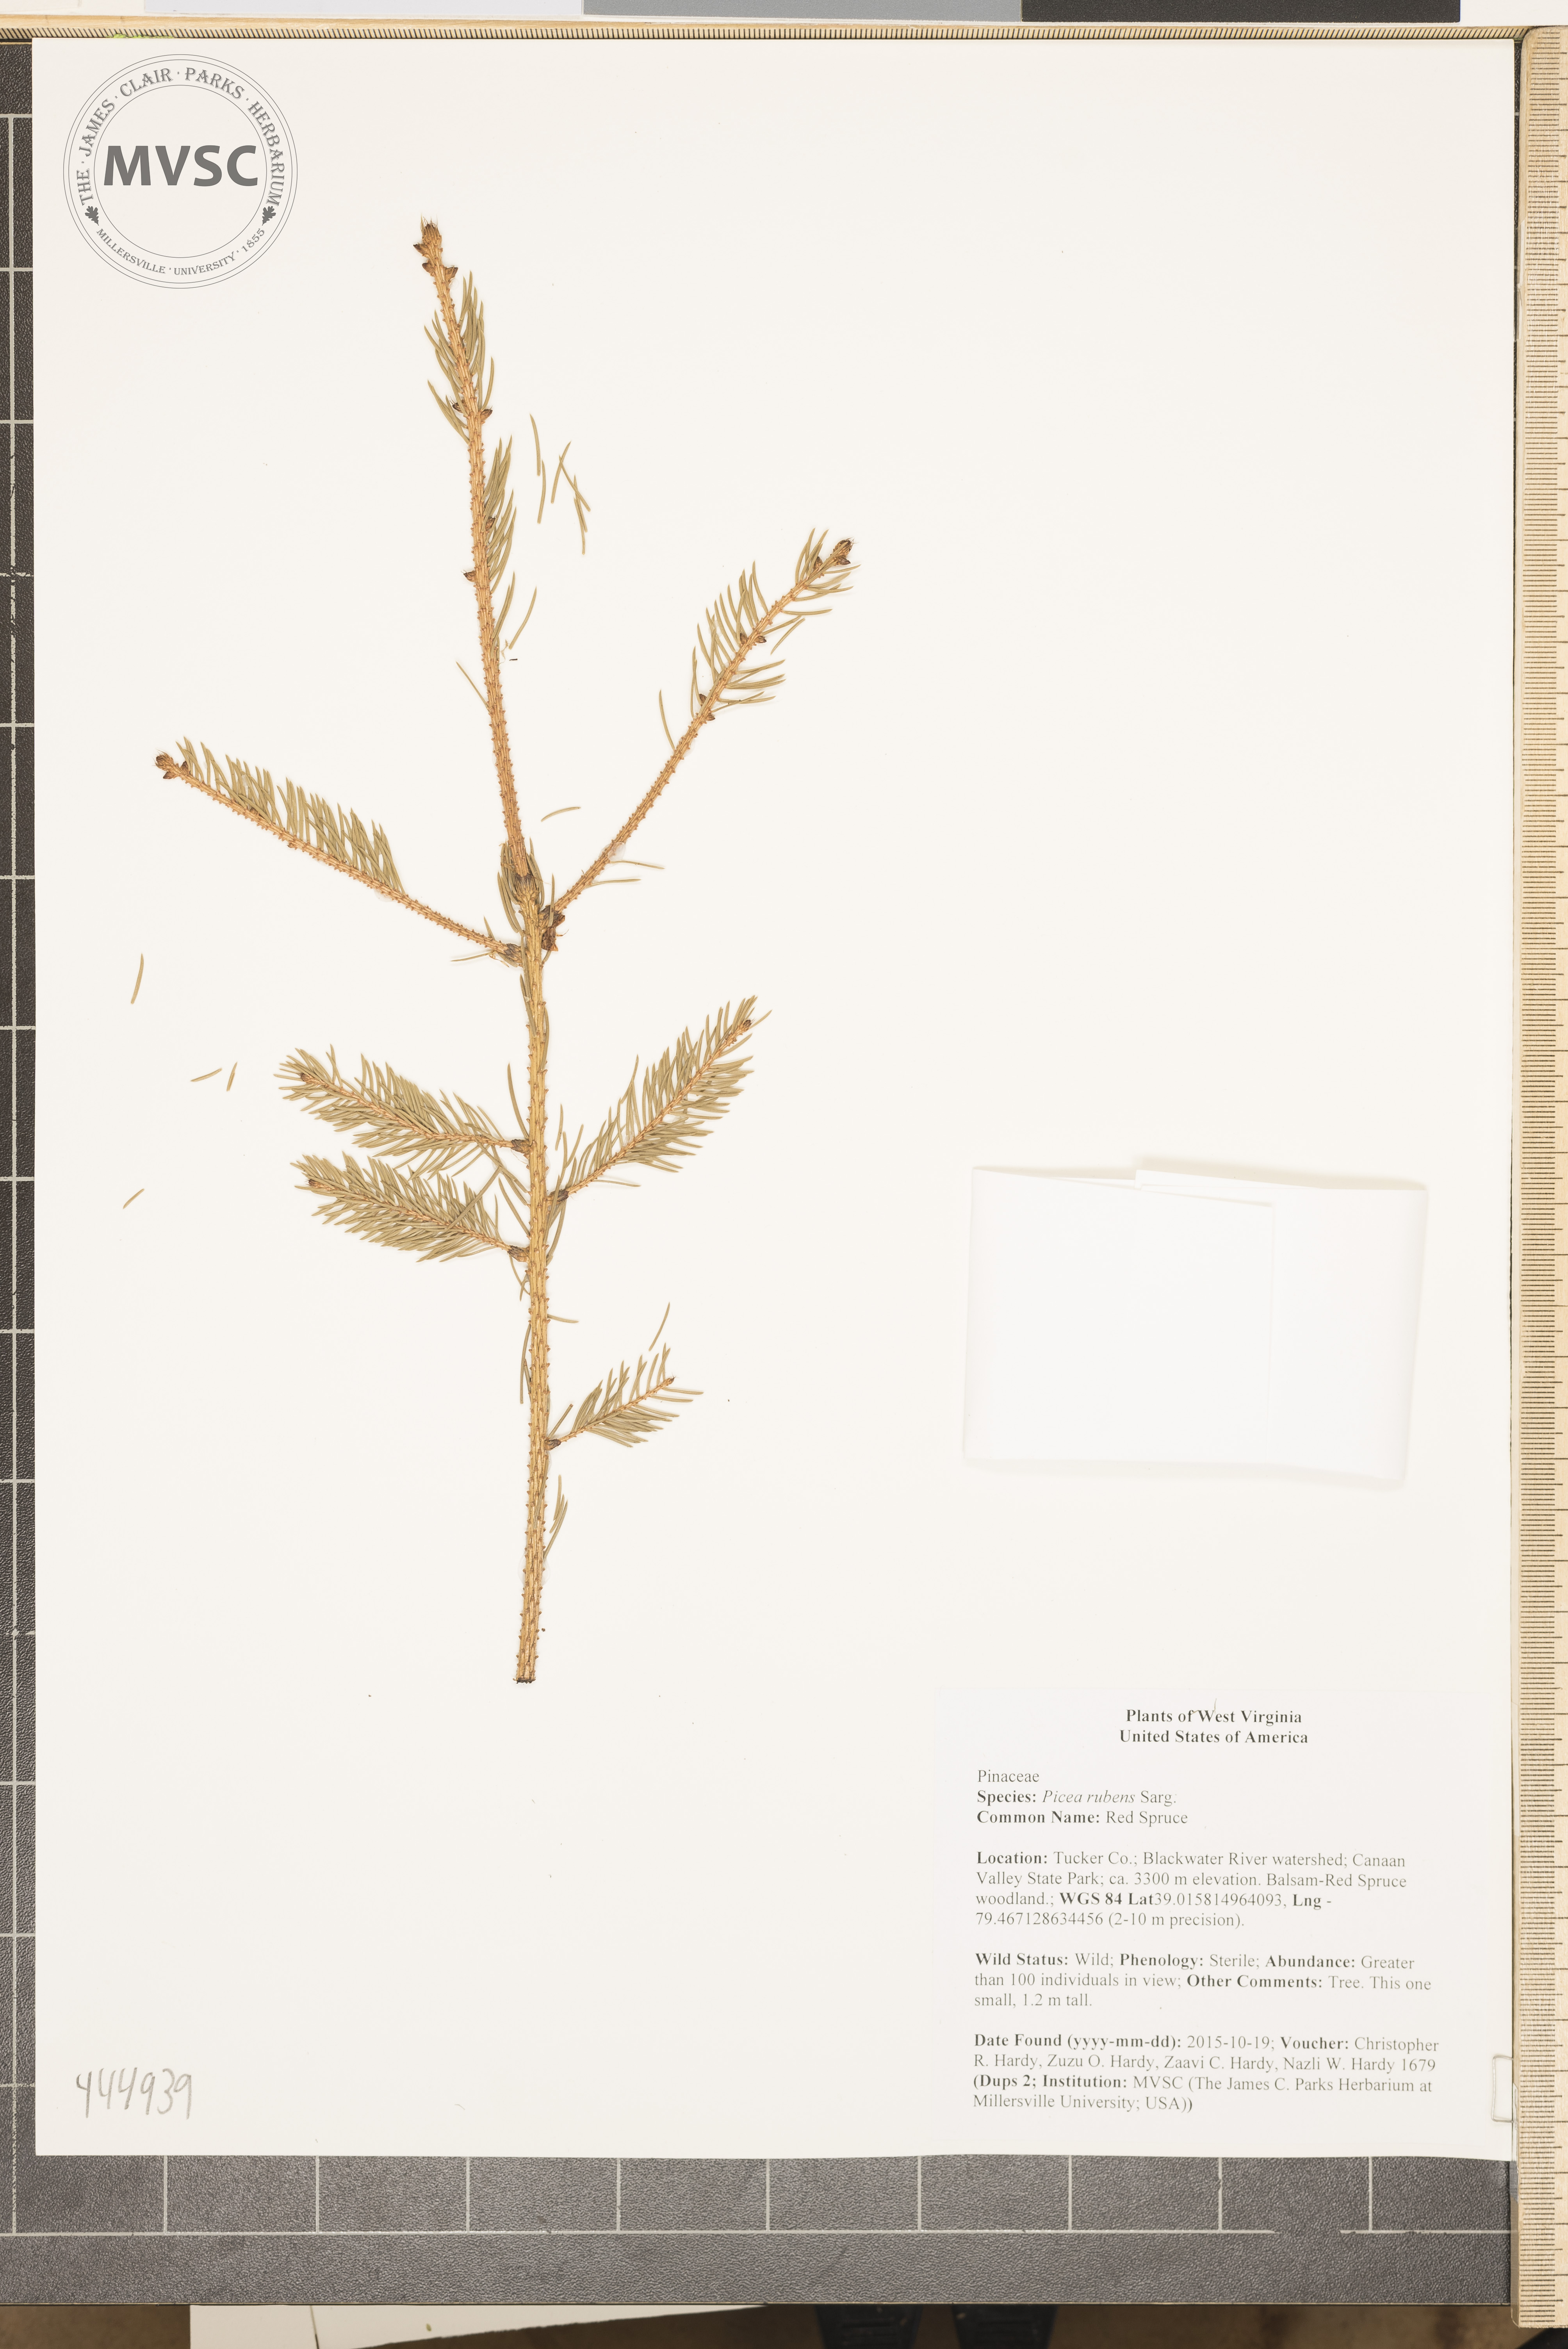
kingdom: Plantae
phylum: Tracheophyta
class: Pinopsida
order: Pinales
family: Pinaceae
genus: Picea
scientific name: Picea rubens
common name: Red Spruce
